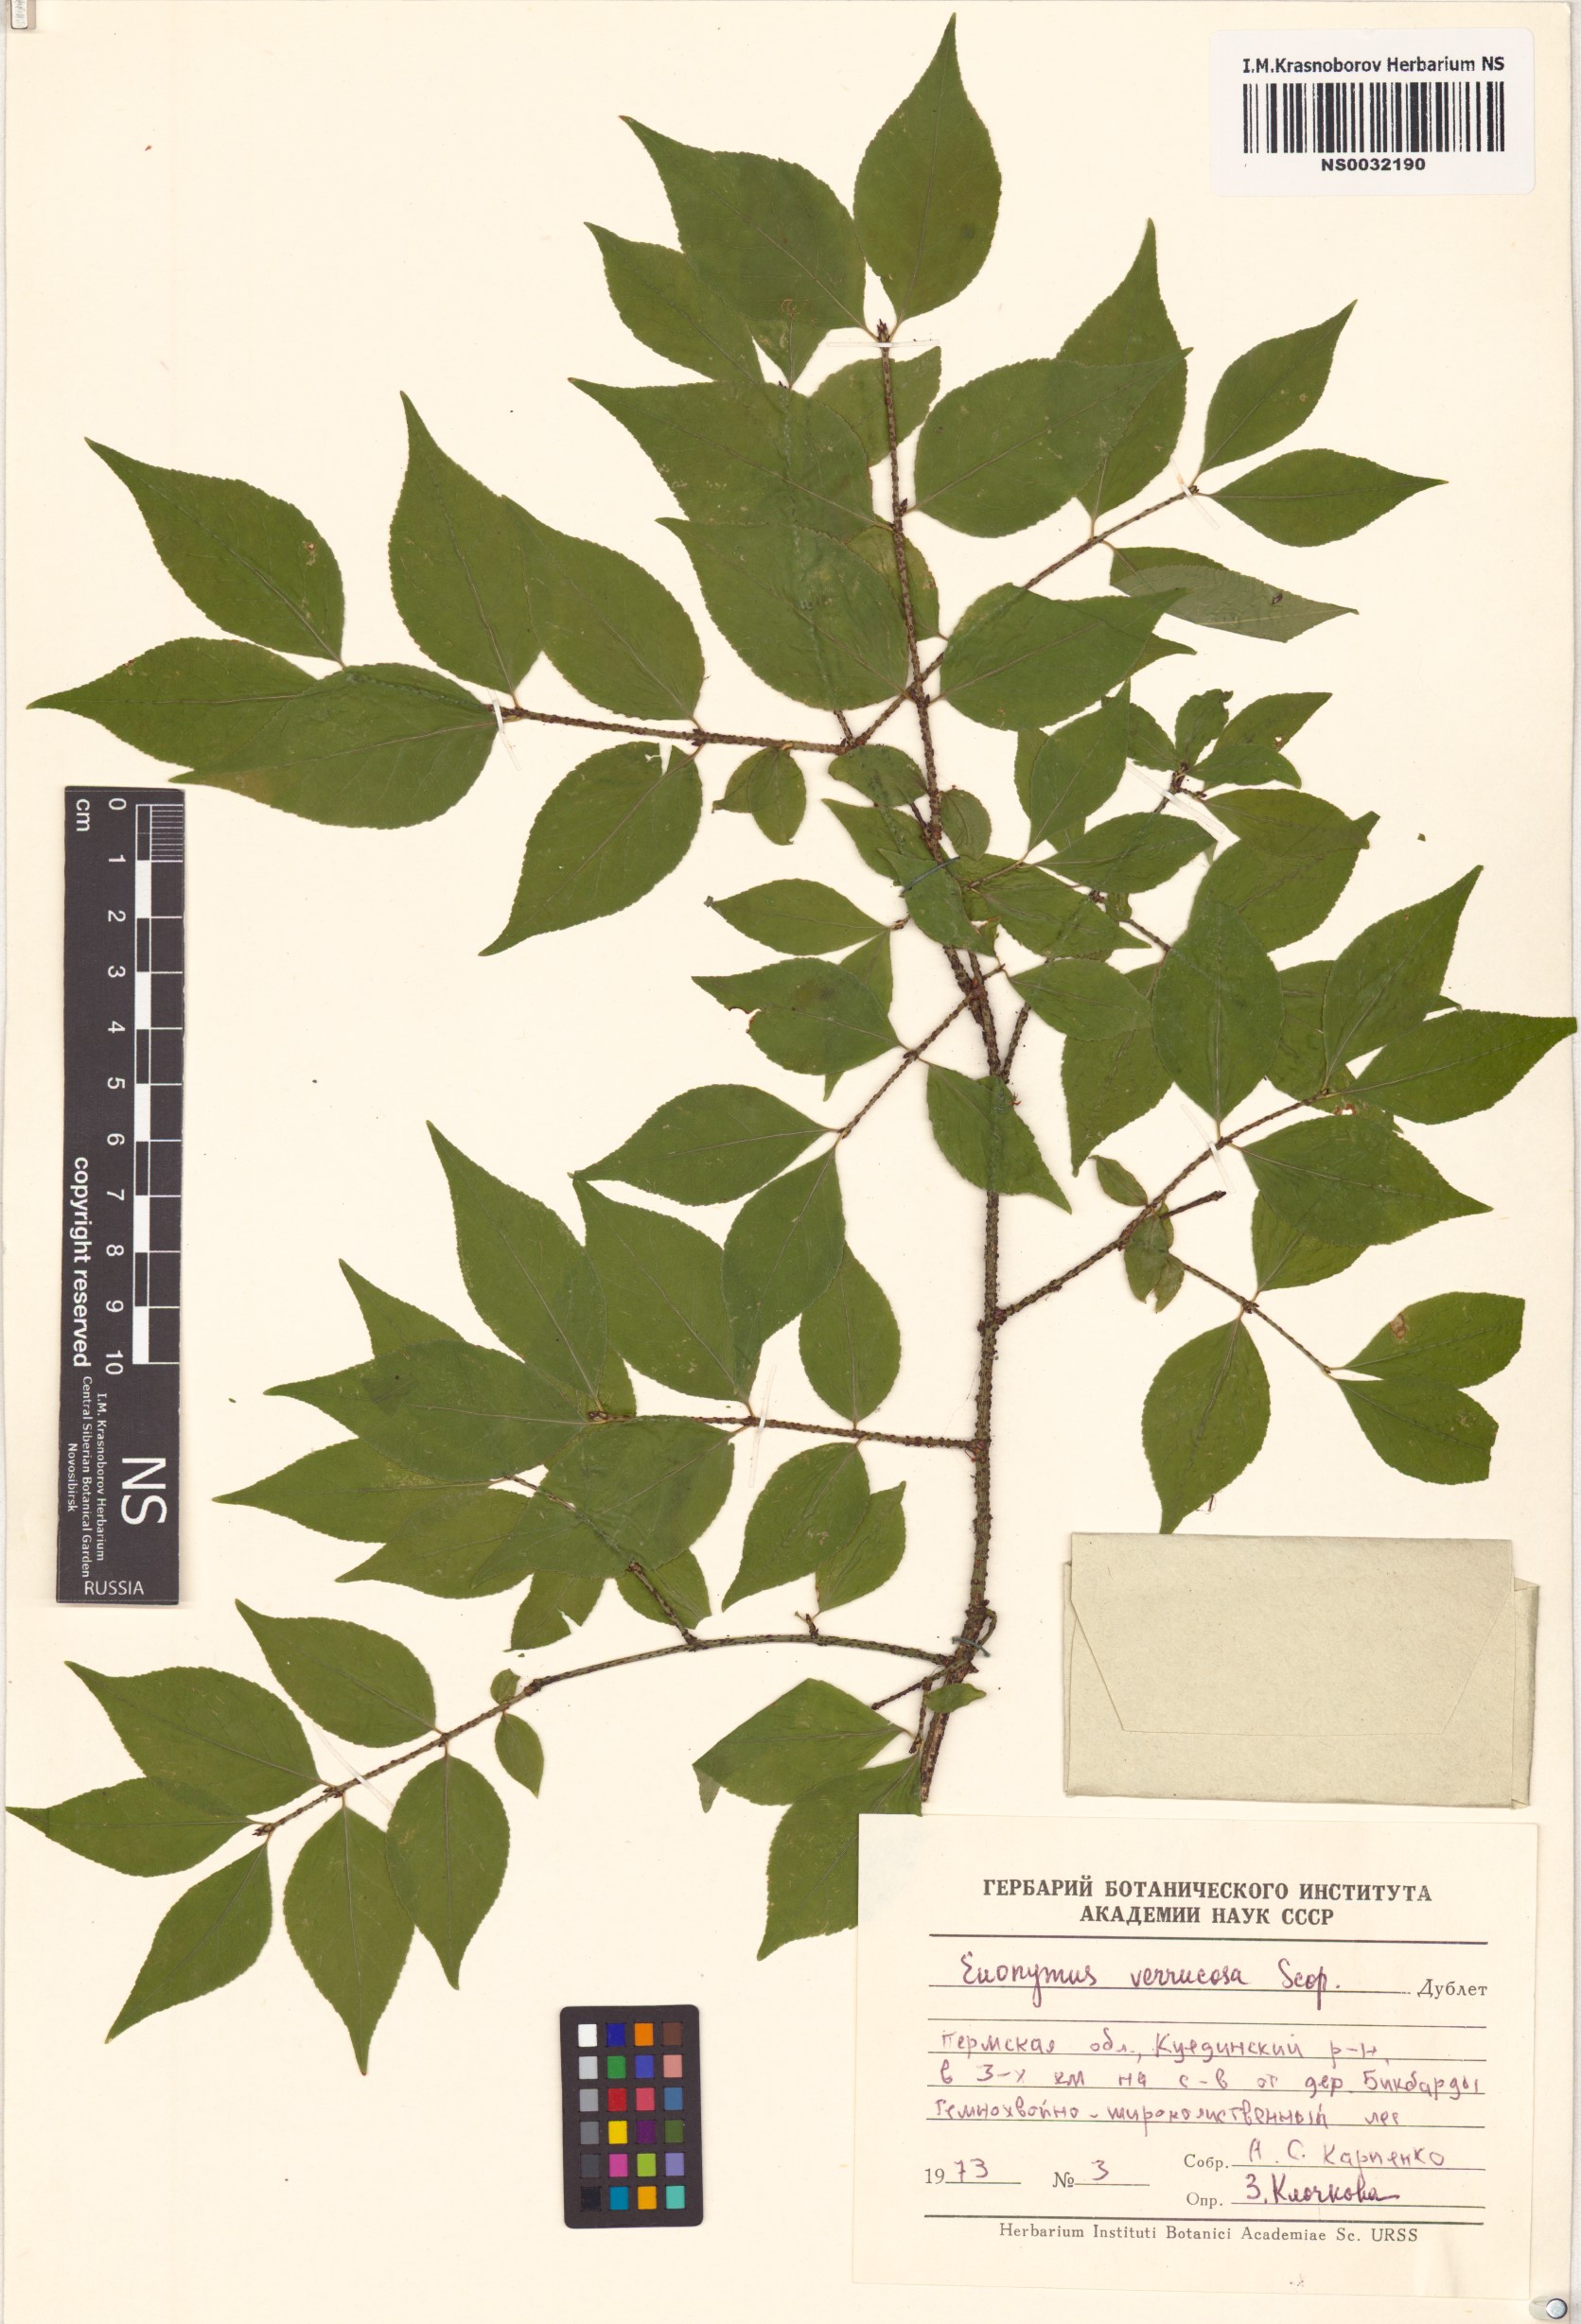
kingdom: Plantae
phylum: Tracheophyta
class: Magnoliopsida
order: Celastrales
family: Celastraceae
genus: Euonymus
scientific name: Euonymus verrucosus
